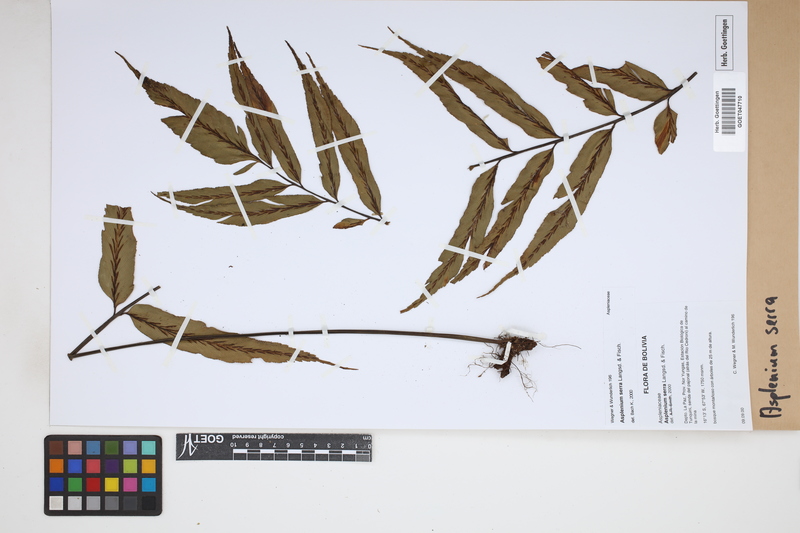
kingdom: Plantae
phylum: Tracheophyta
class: Polypodiopsida
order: Polypodiales
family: Aspleniaceae
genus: Asplenium
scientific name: Asplenium serra
